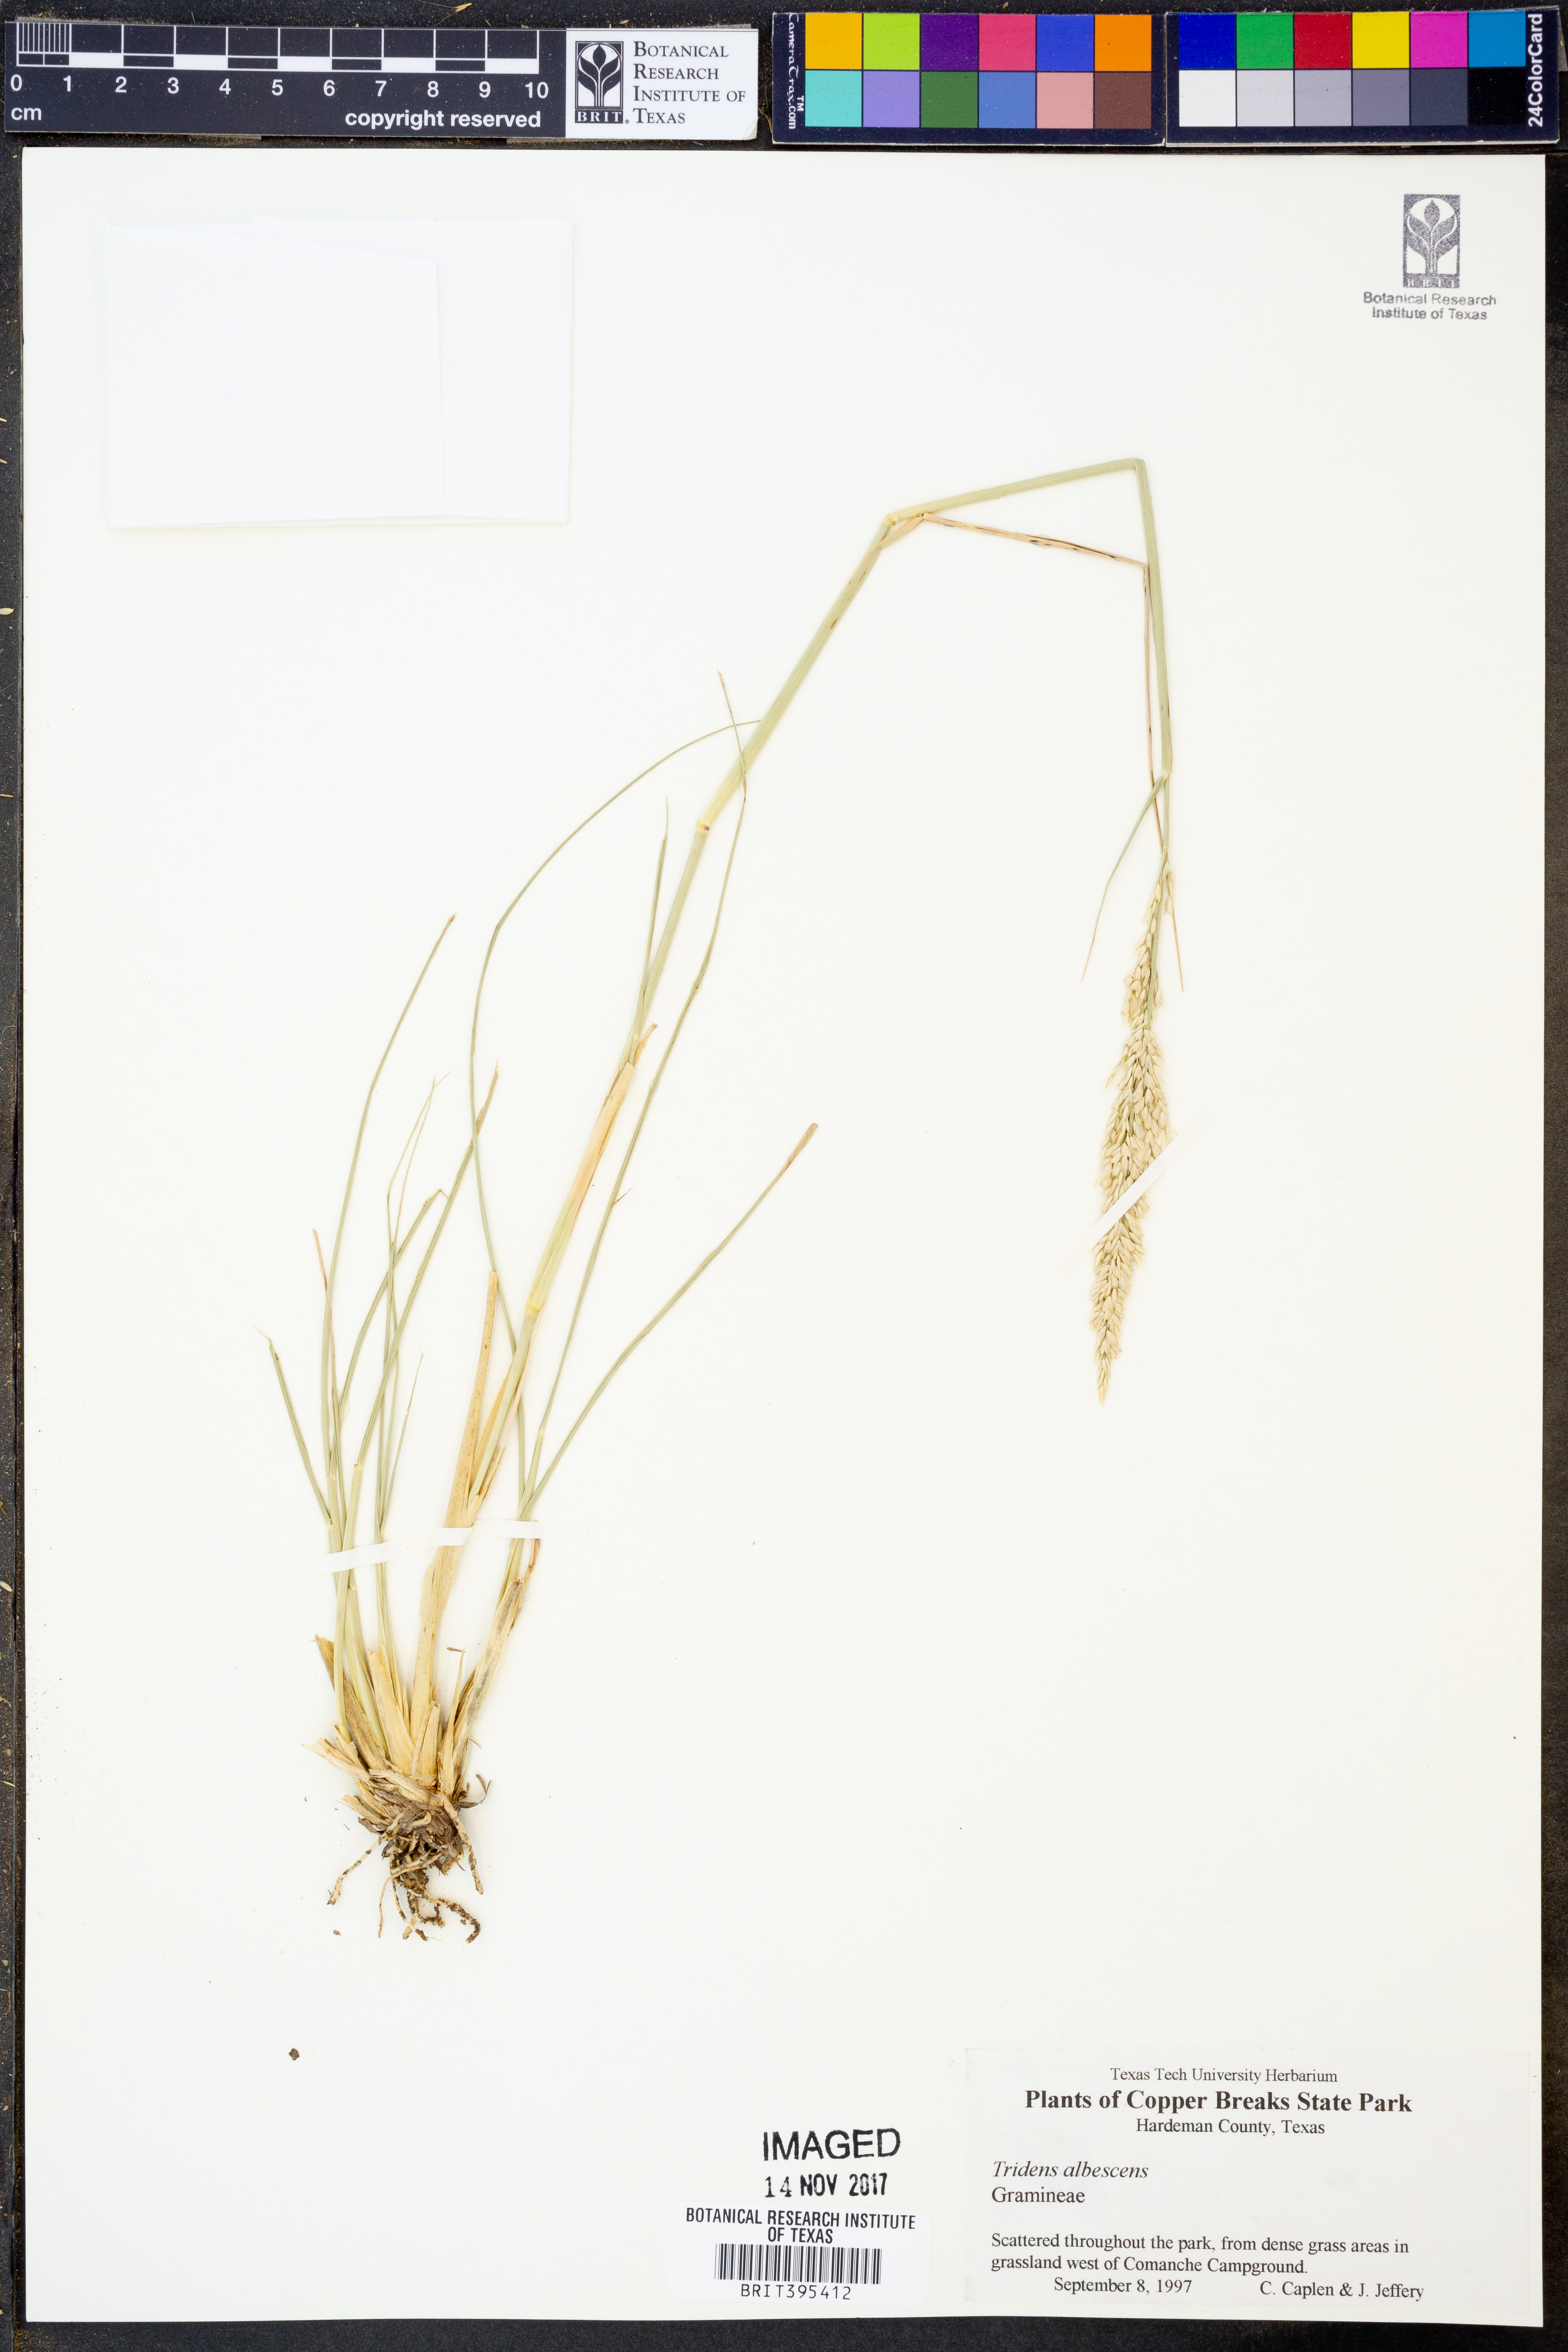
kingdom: Plantae
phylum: Tracheophyta
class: Liliopsida
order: Poales
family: Poaceae
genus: Tridens
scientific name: Tridens albescens
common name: White tridens
